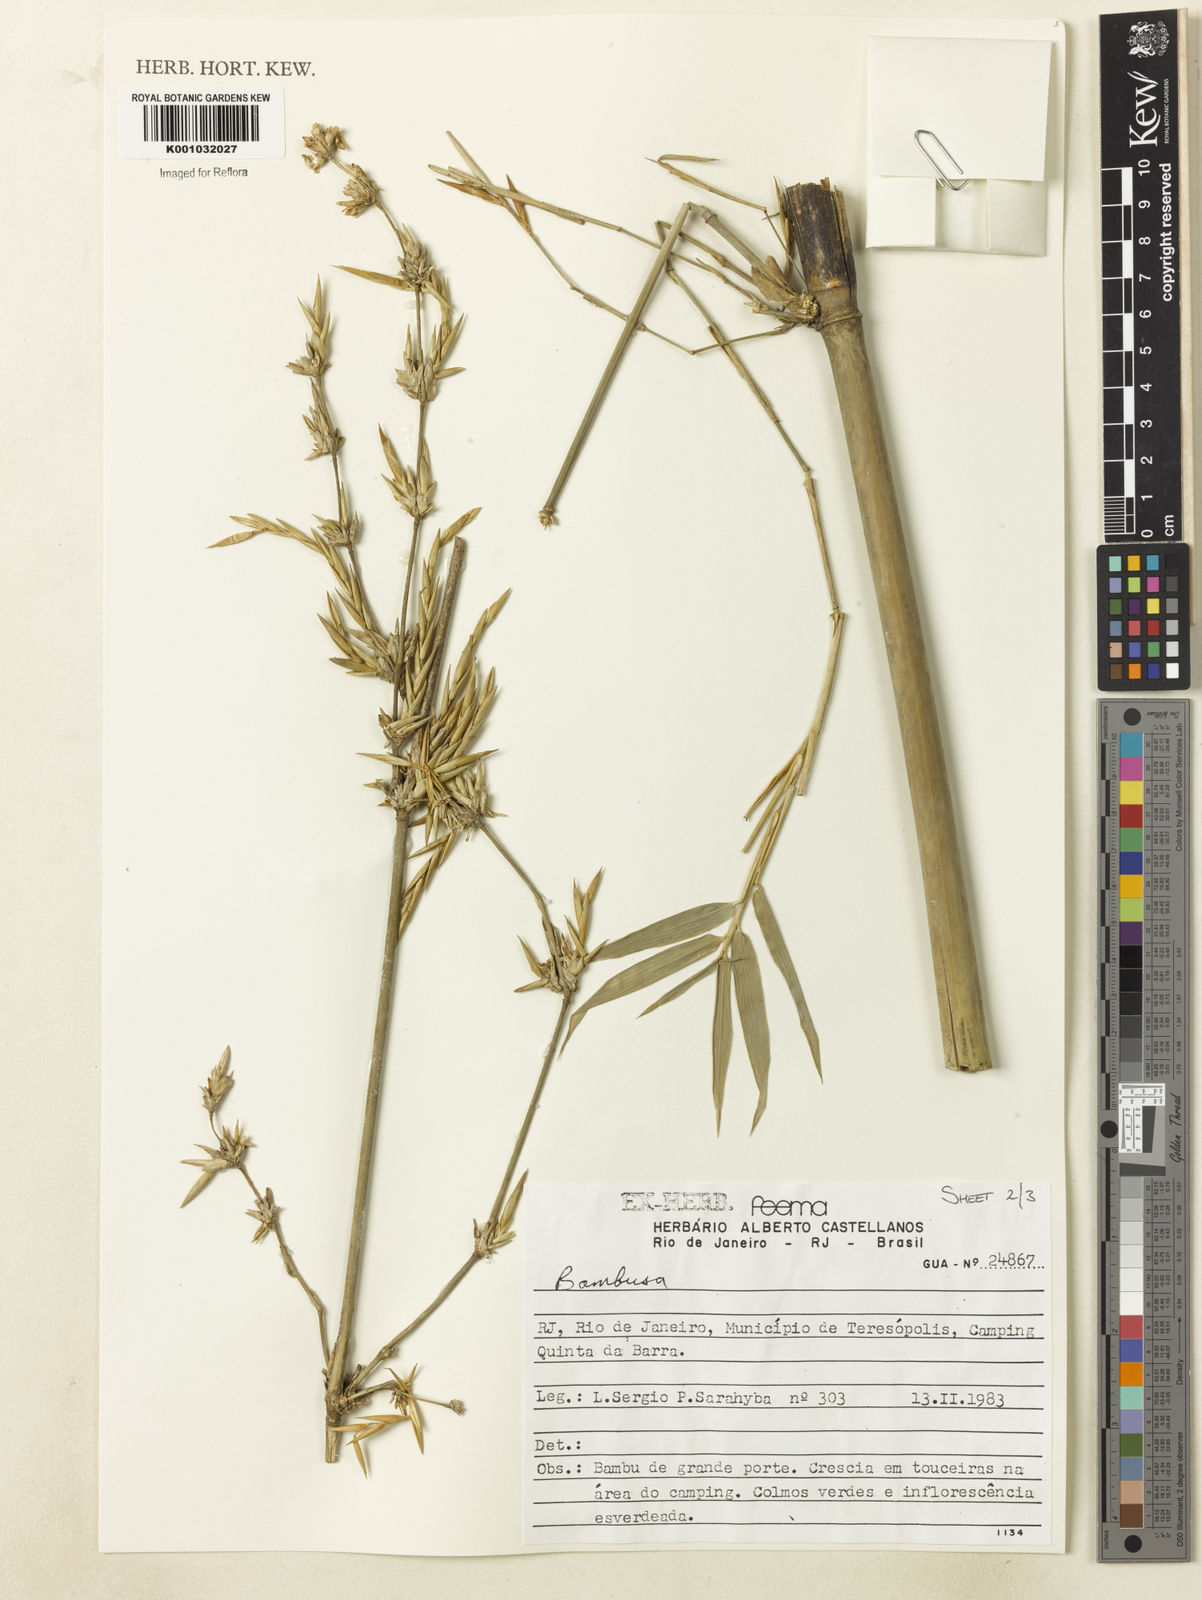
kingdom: Plantae
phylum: Tracheophyta
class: Liliopsida
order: Poales
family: Poaceae
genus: Bambusa
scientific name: Bambusa tuldoides
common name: Verdant bamboo
